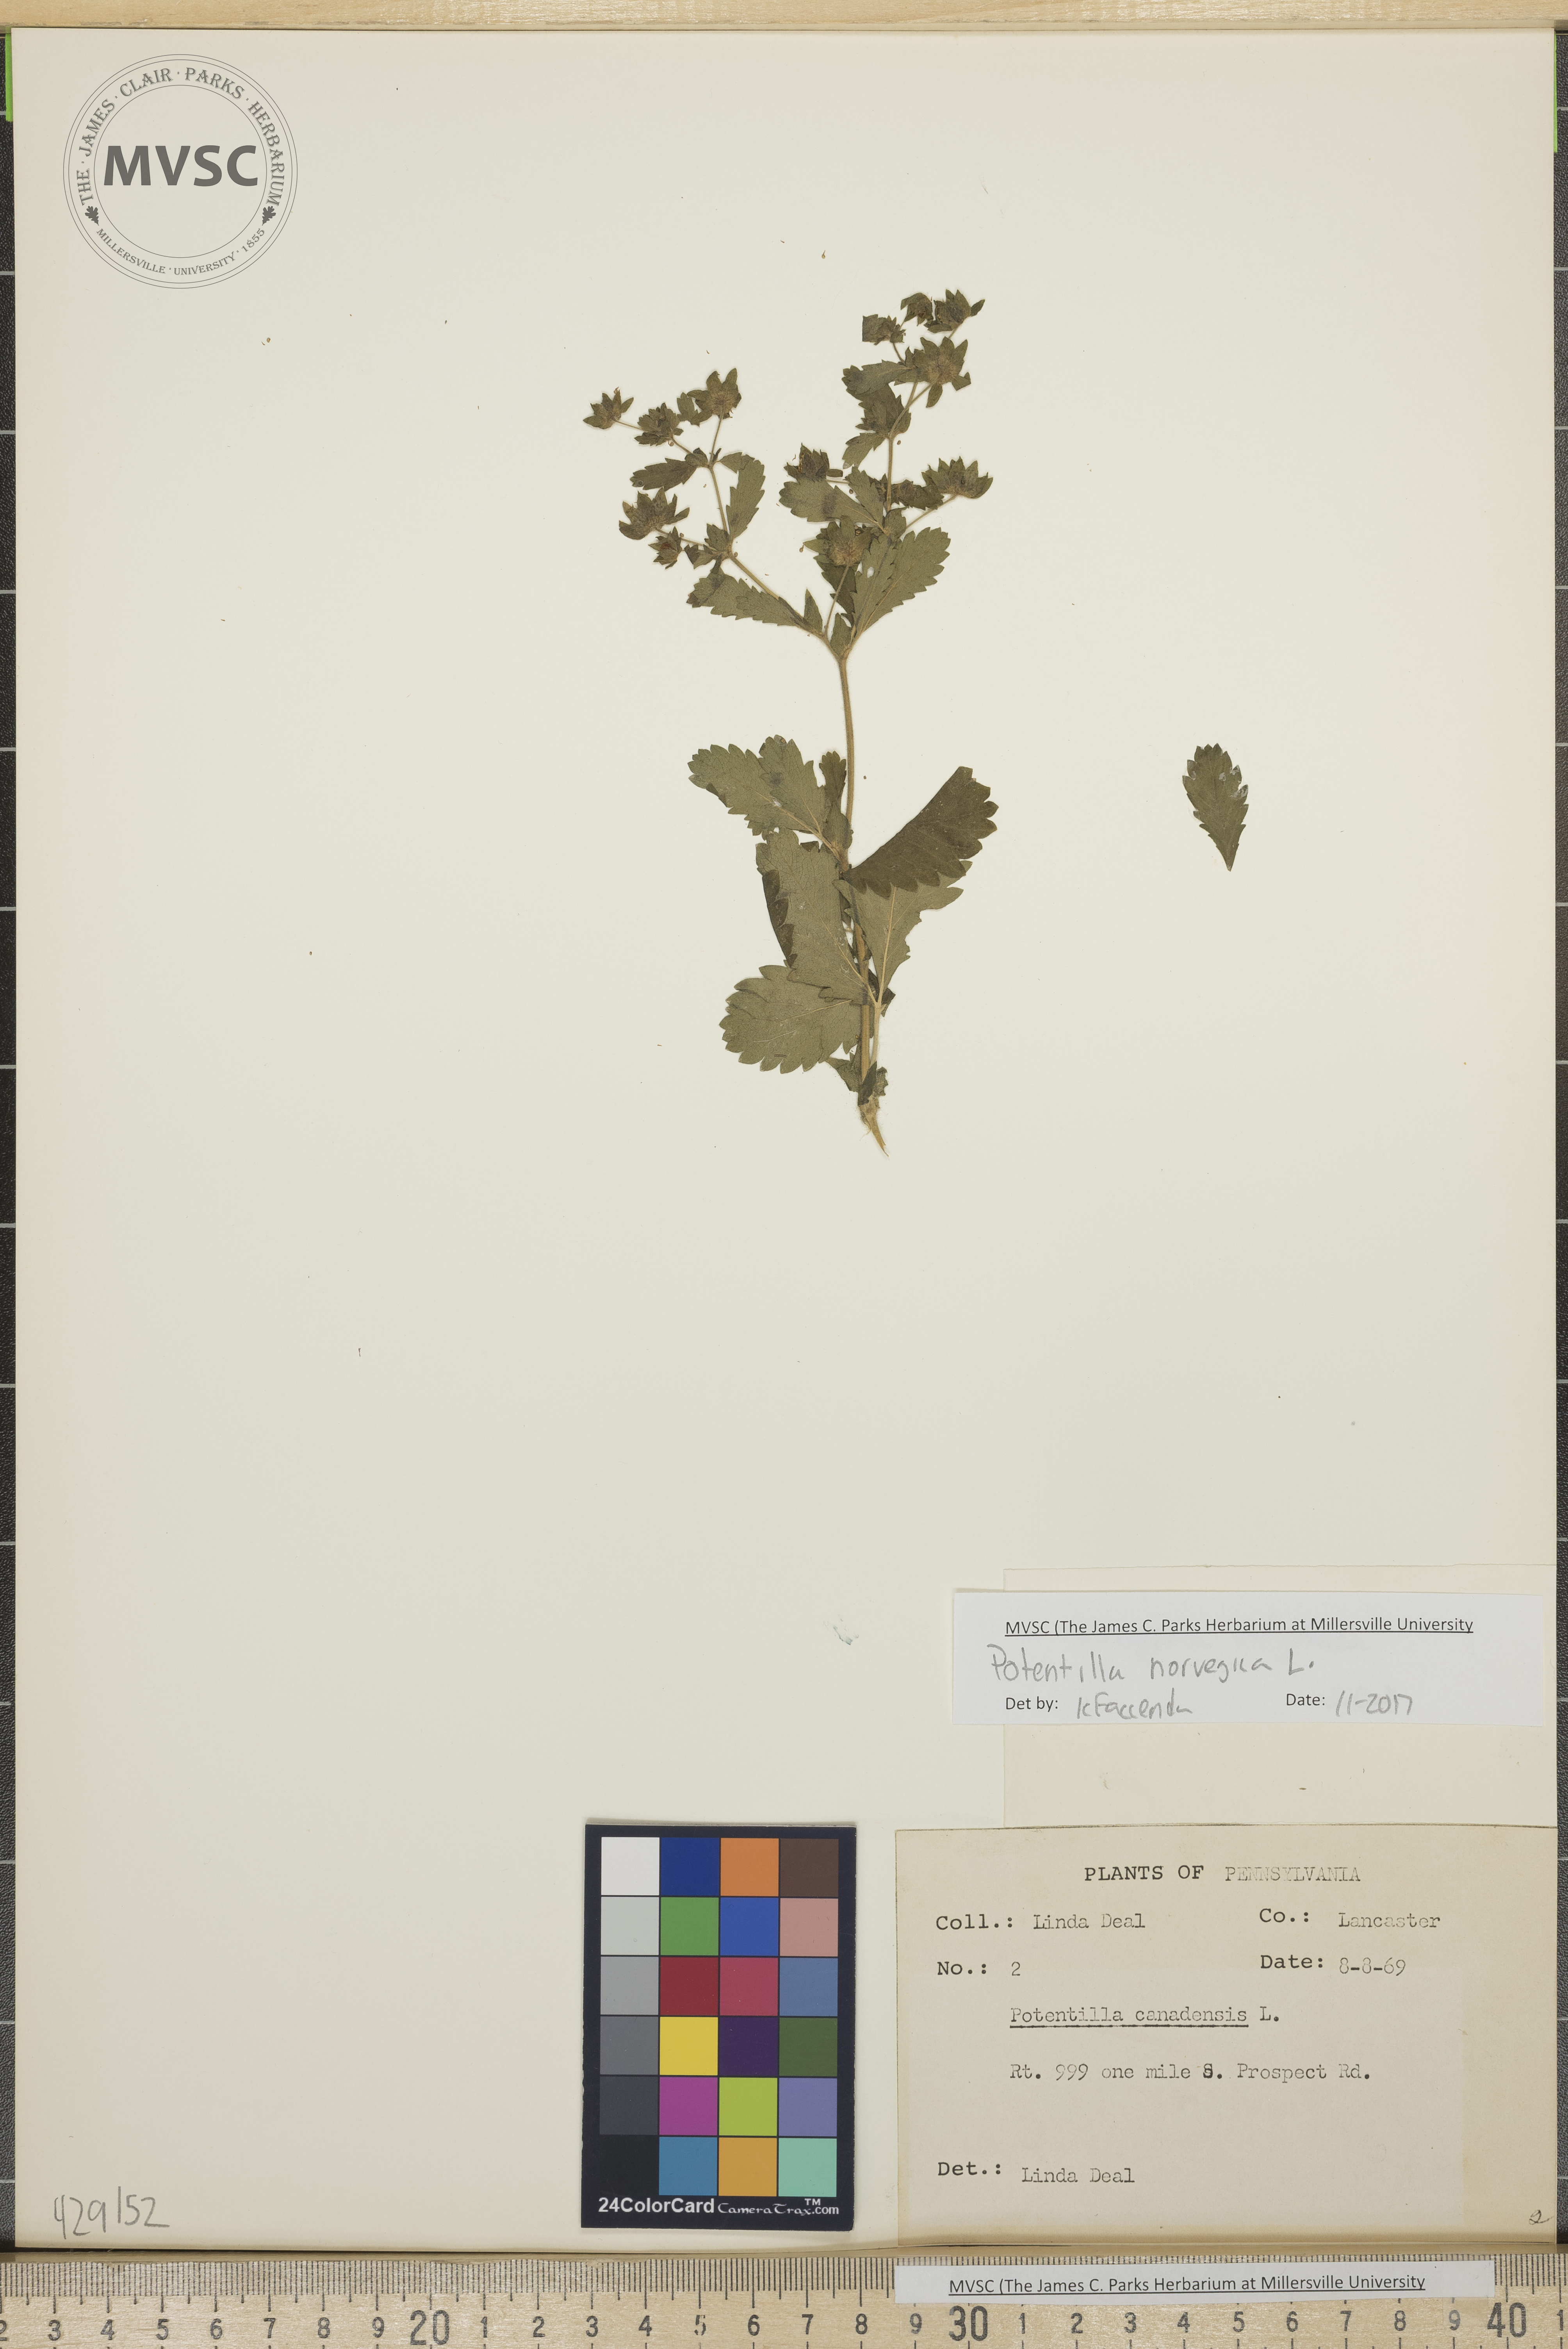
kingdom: Plantae
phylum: Tracheophyta
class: Magnoliopsida
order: Rosales
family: Rosaceae
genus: Potentilla
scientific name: Potentilla norvegica
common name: Ternate-leaved cinquefoil
